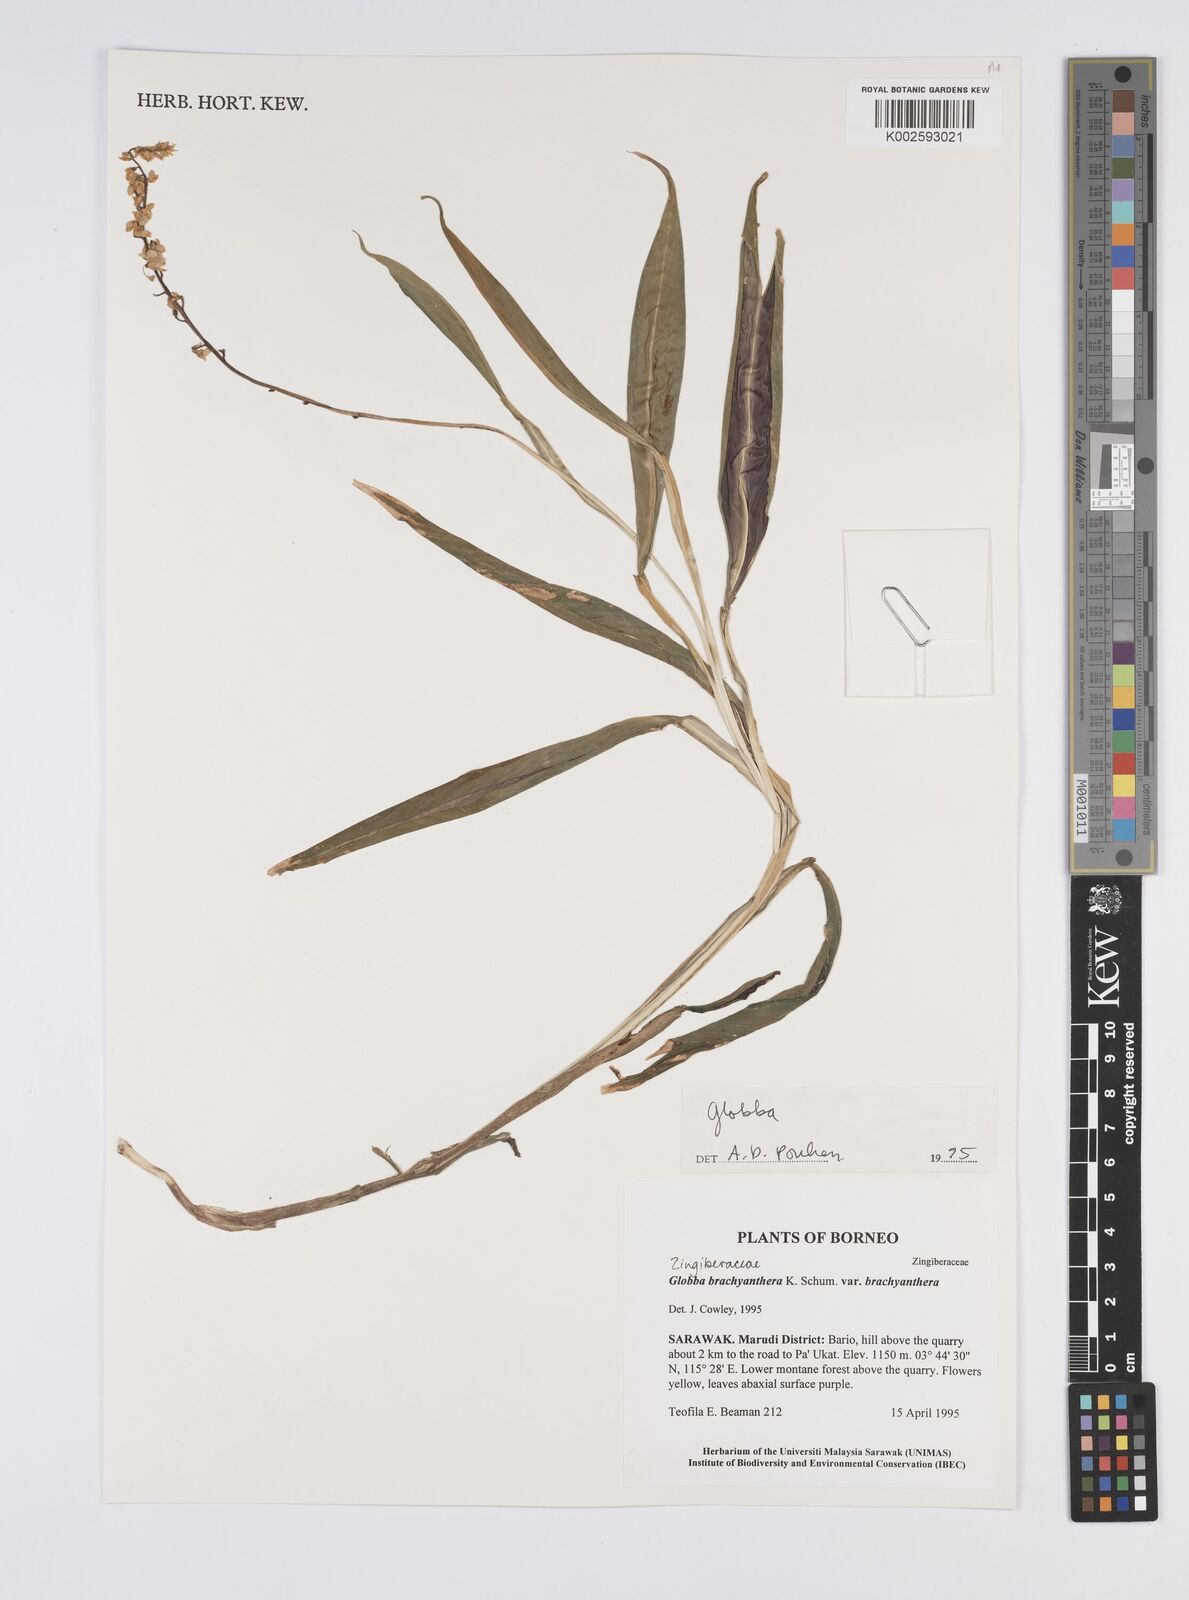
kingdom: Plantae
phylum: Tracheophyta
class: Liliopsida
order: Zingiberales
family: Zingiberaceae
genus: Globba
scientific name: Globba brachyanthera
